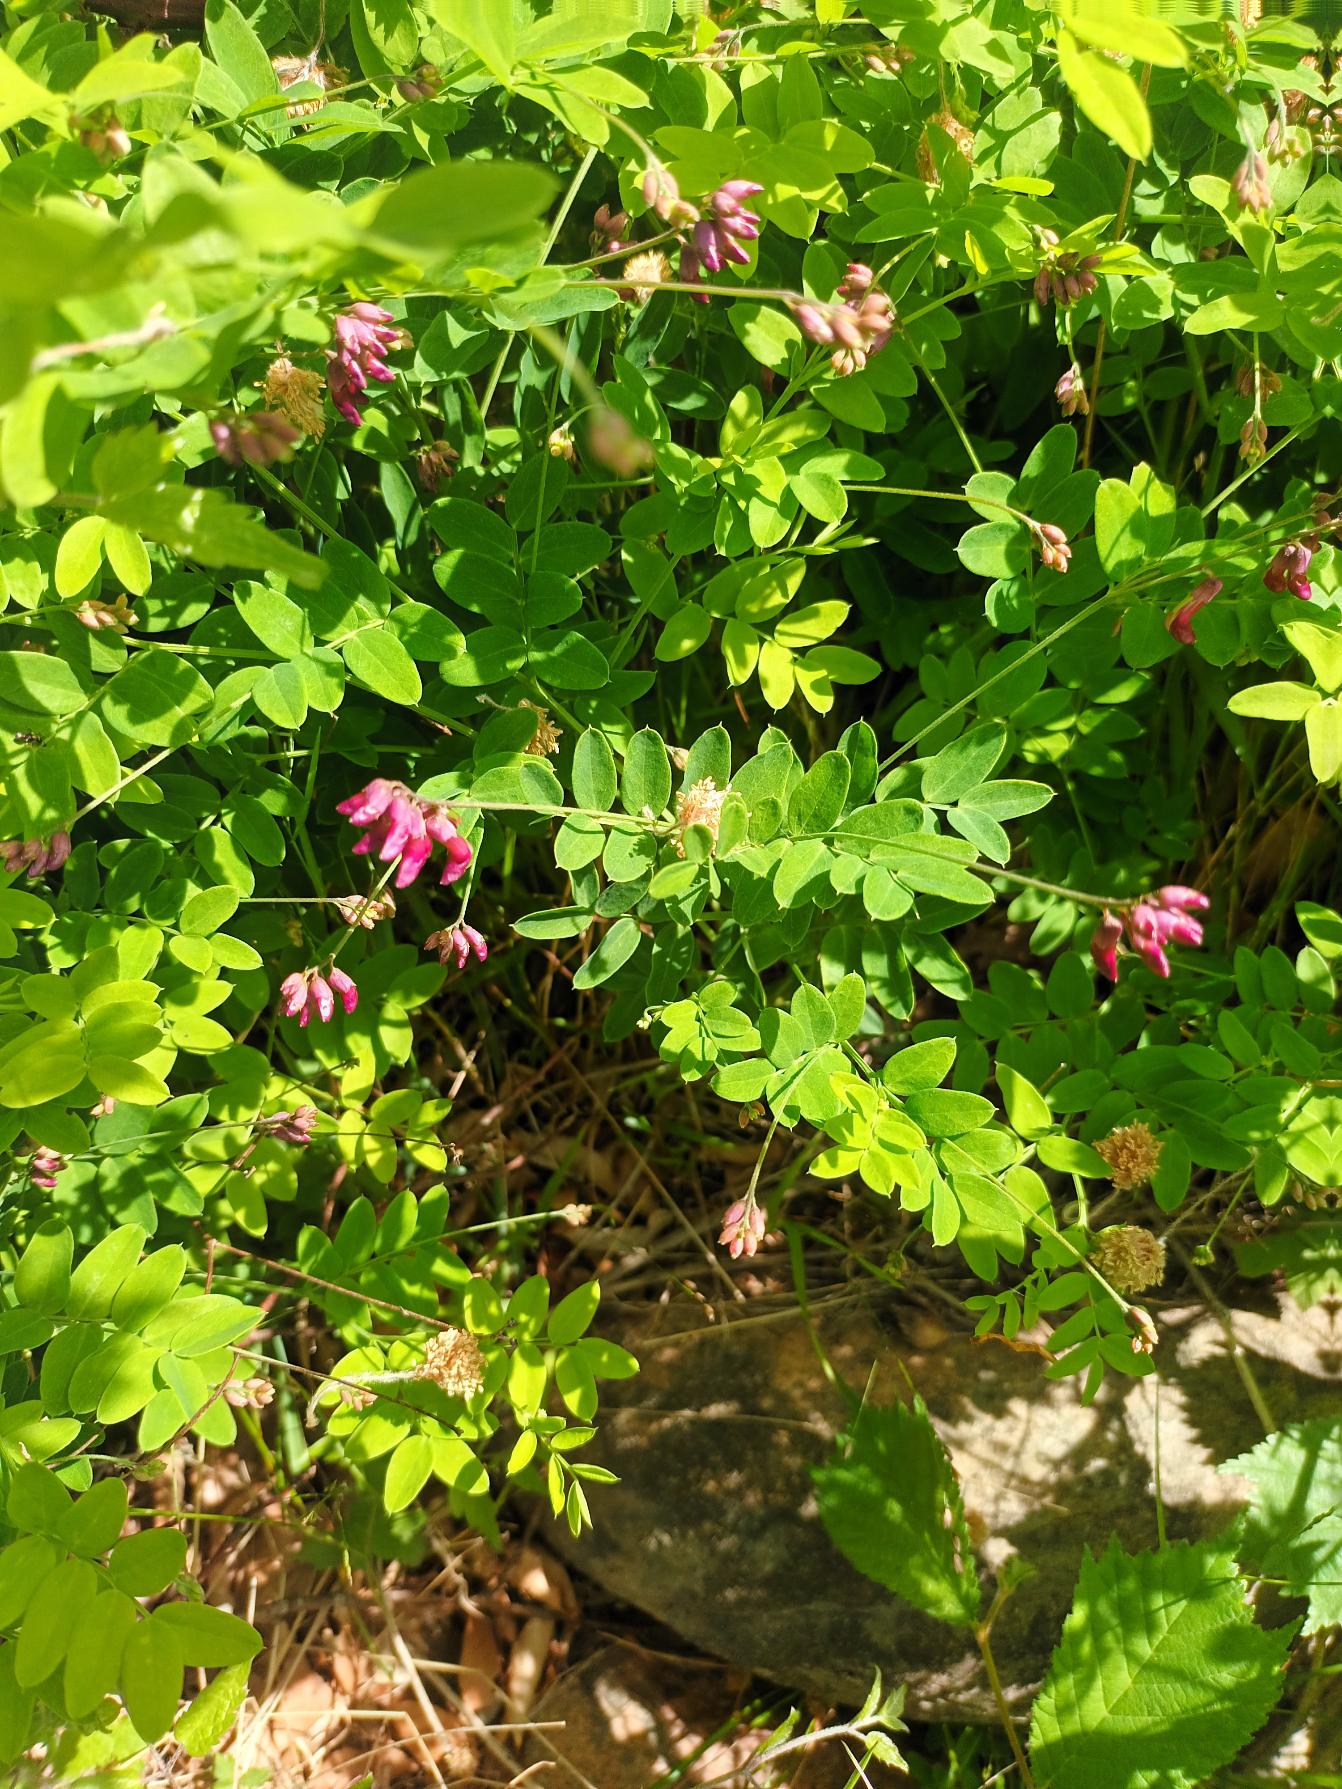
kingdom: Plantae
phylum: Tracheophyta
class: Magnoliopsida
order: Fabales
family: Fabaceae
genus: Lathyrus
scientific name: Lathyrus niger
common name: Sort fladbælg
